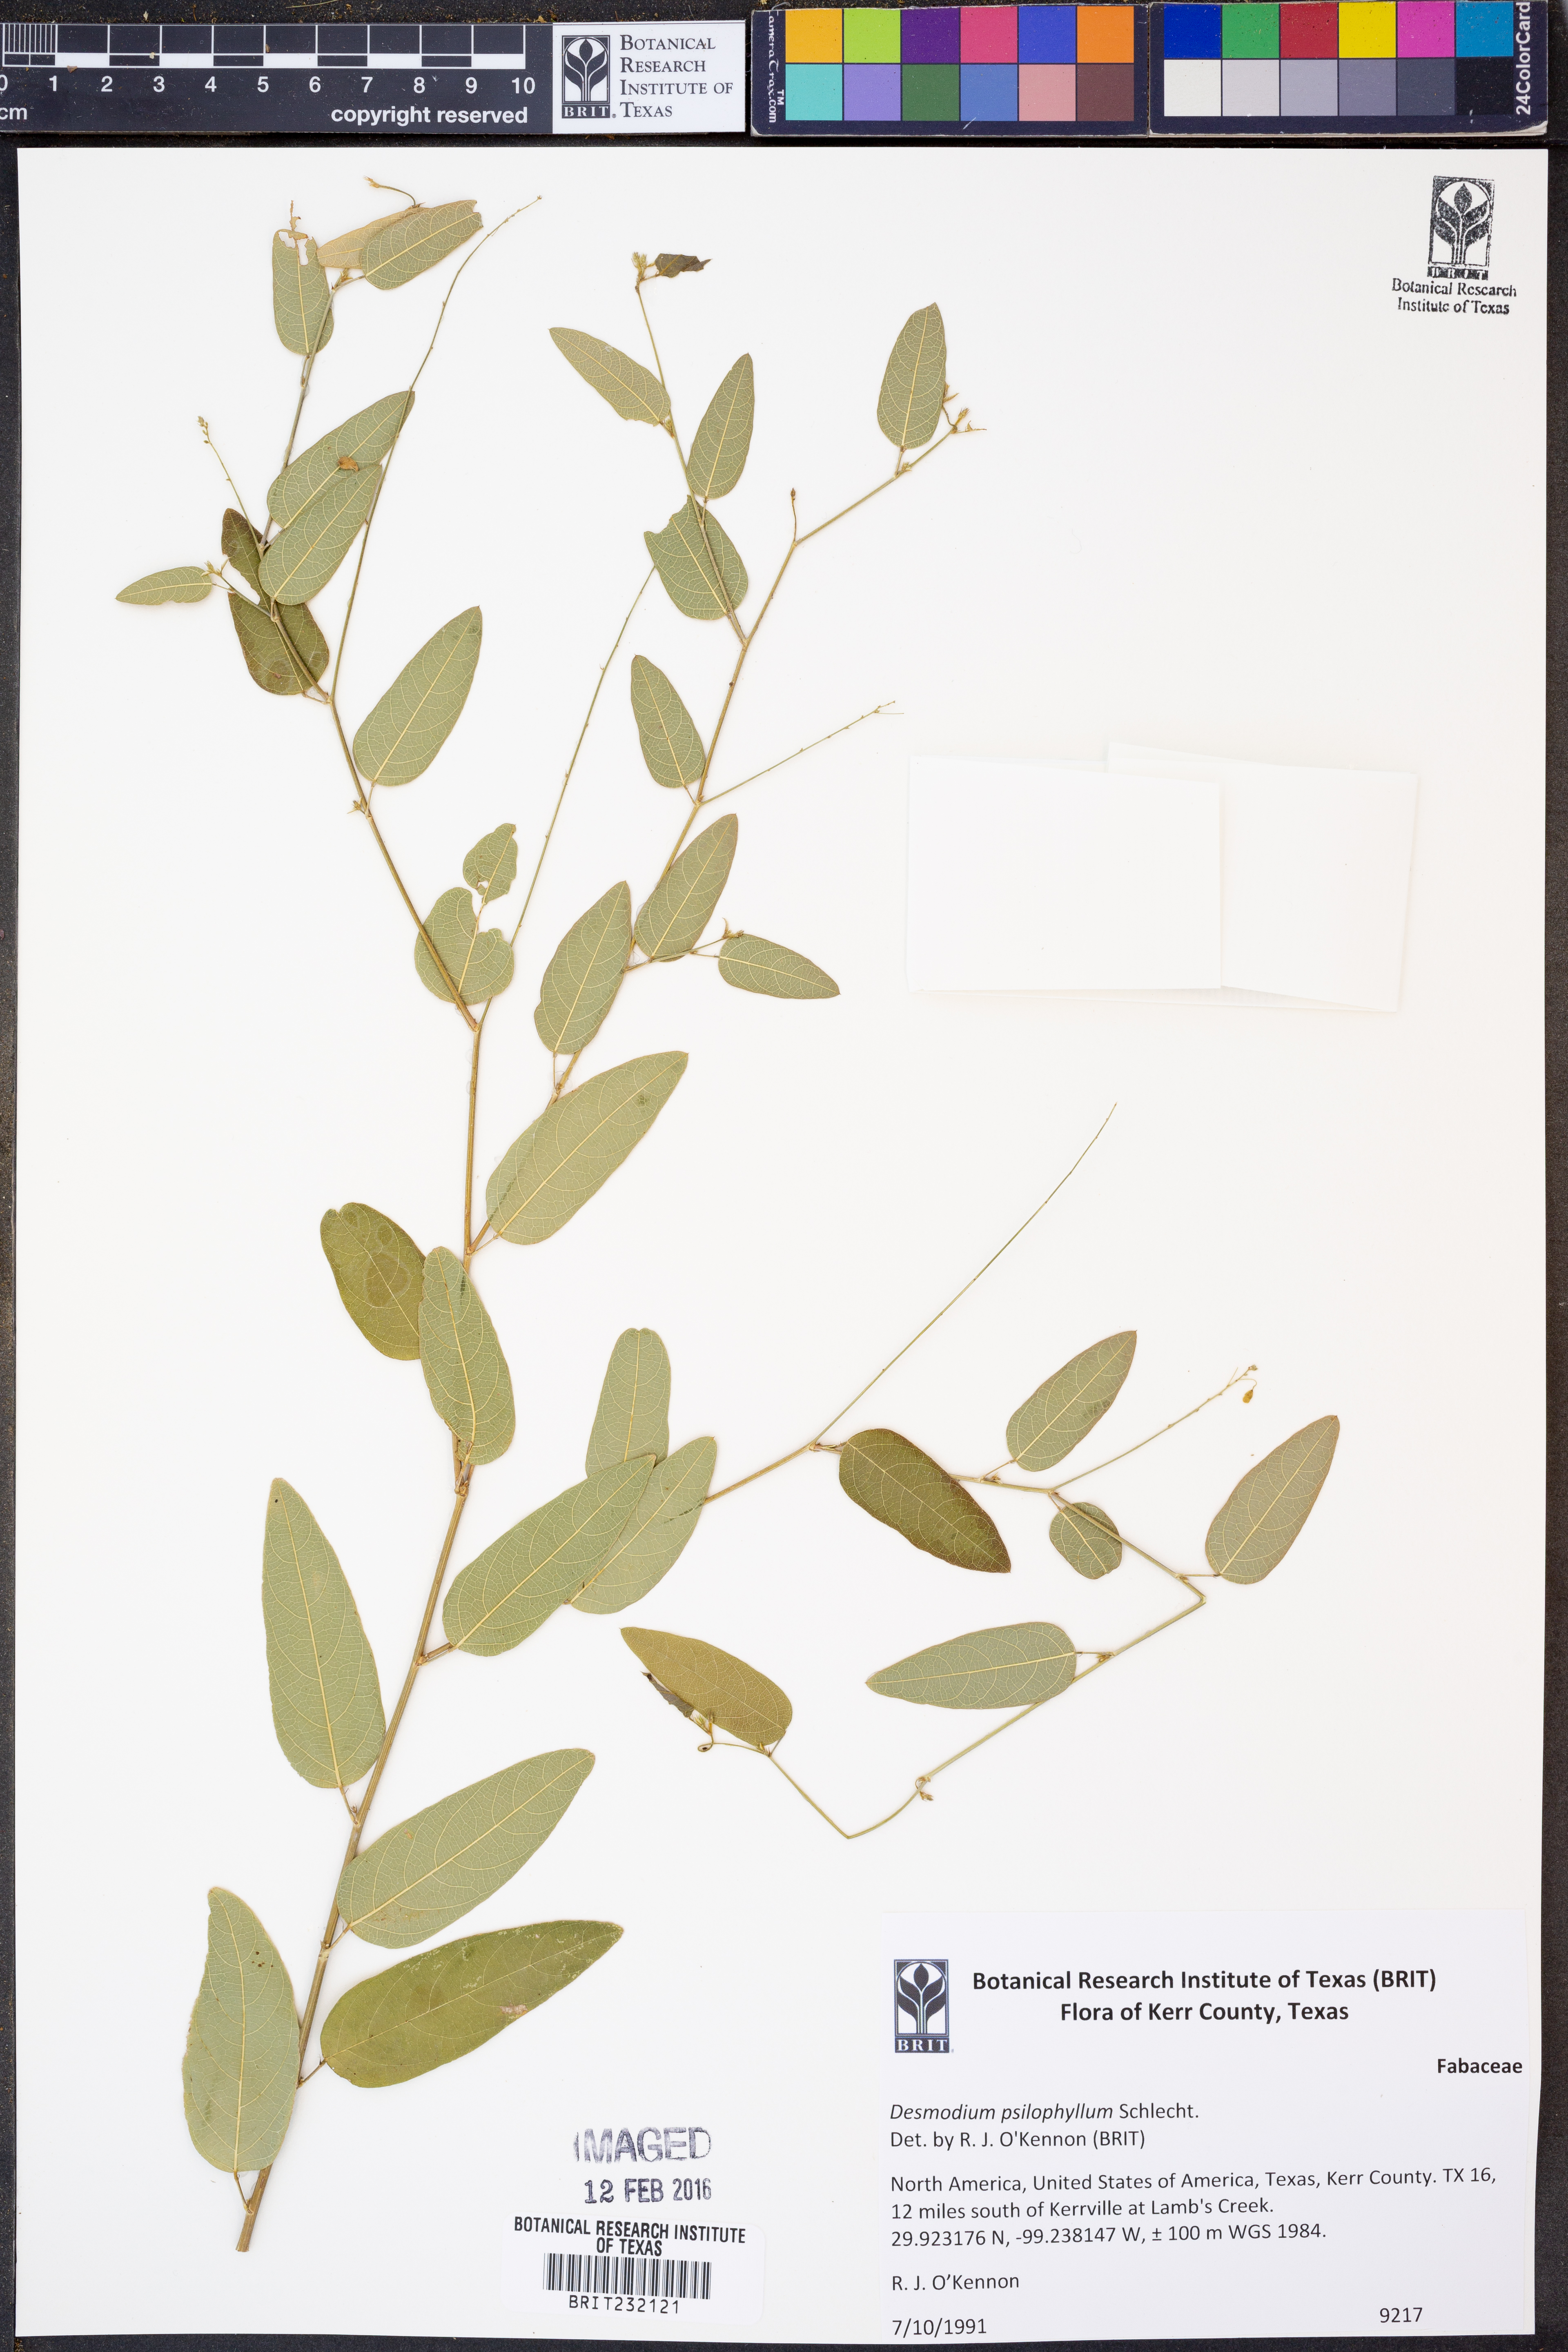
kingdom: Plantae
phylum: Tracheophyta
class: Magnoliopsida
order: Fabales
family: Fabaceae
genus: Desmodium
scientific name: Desmodium psilophyllum
